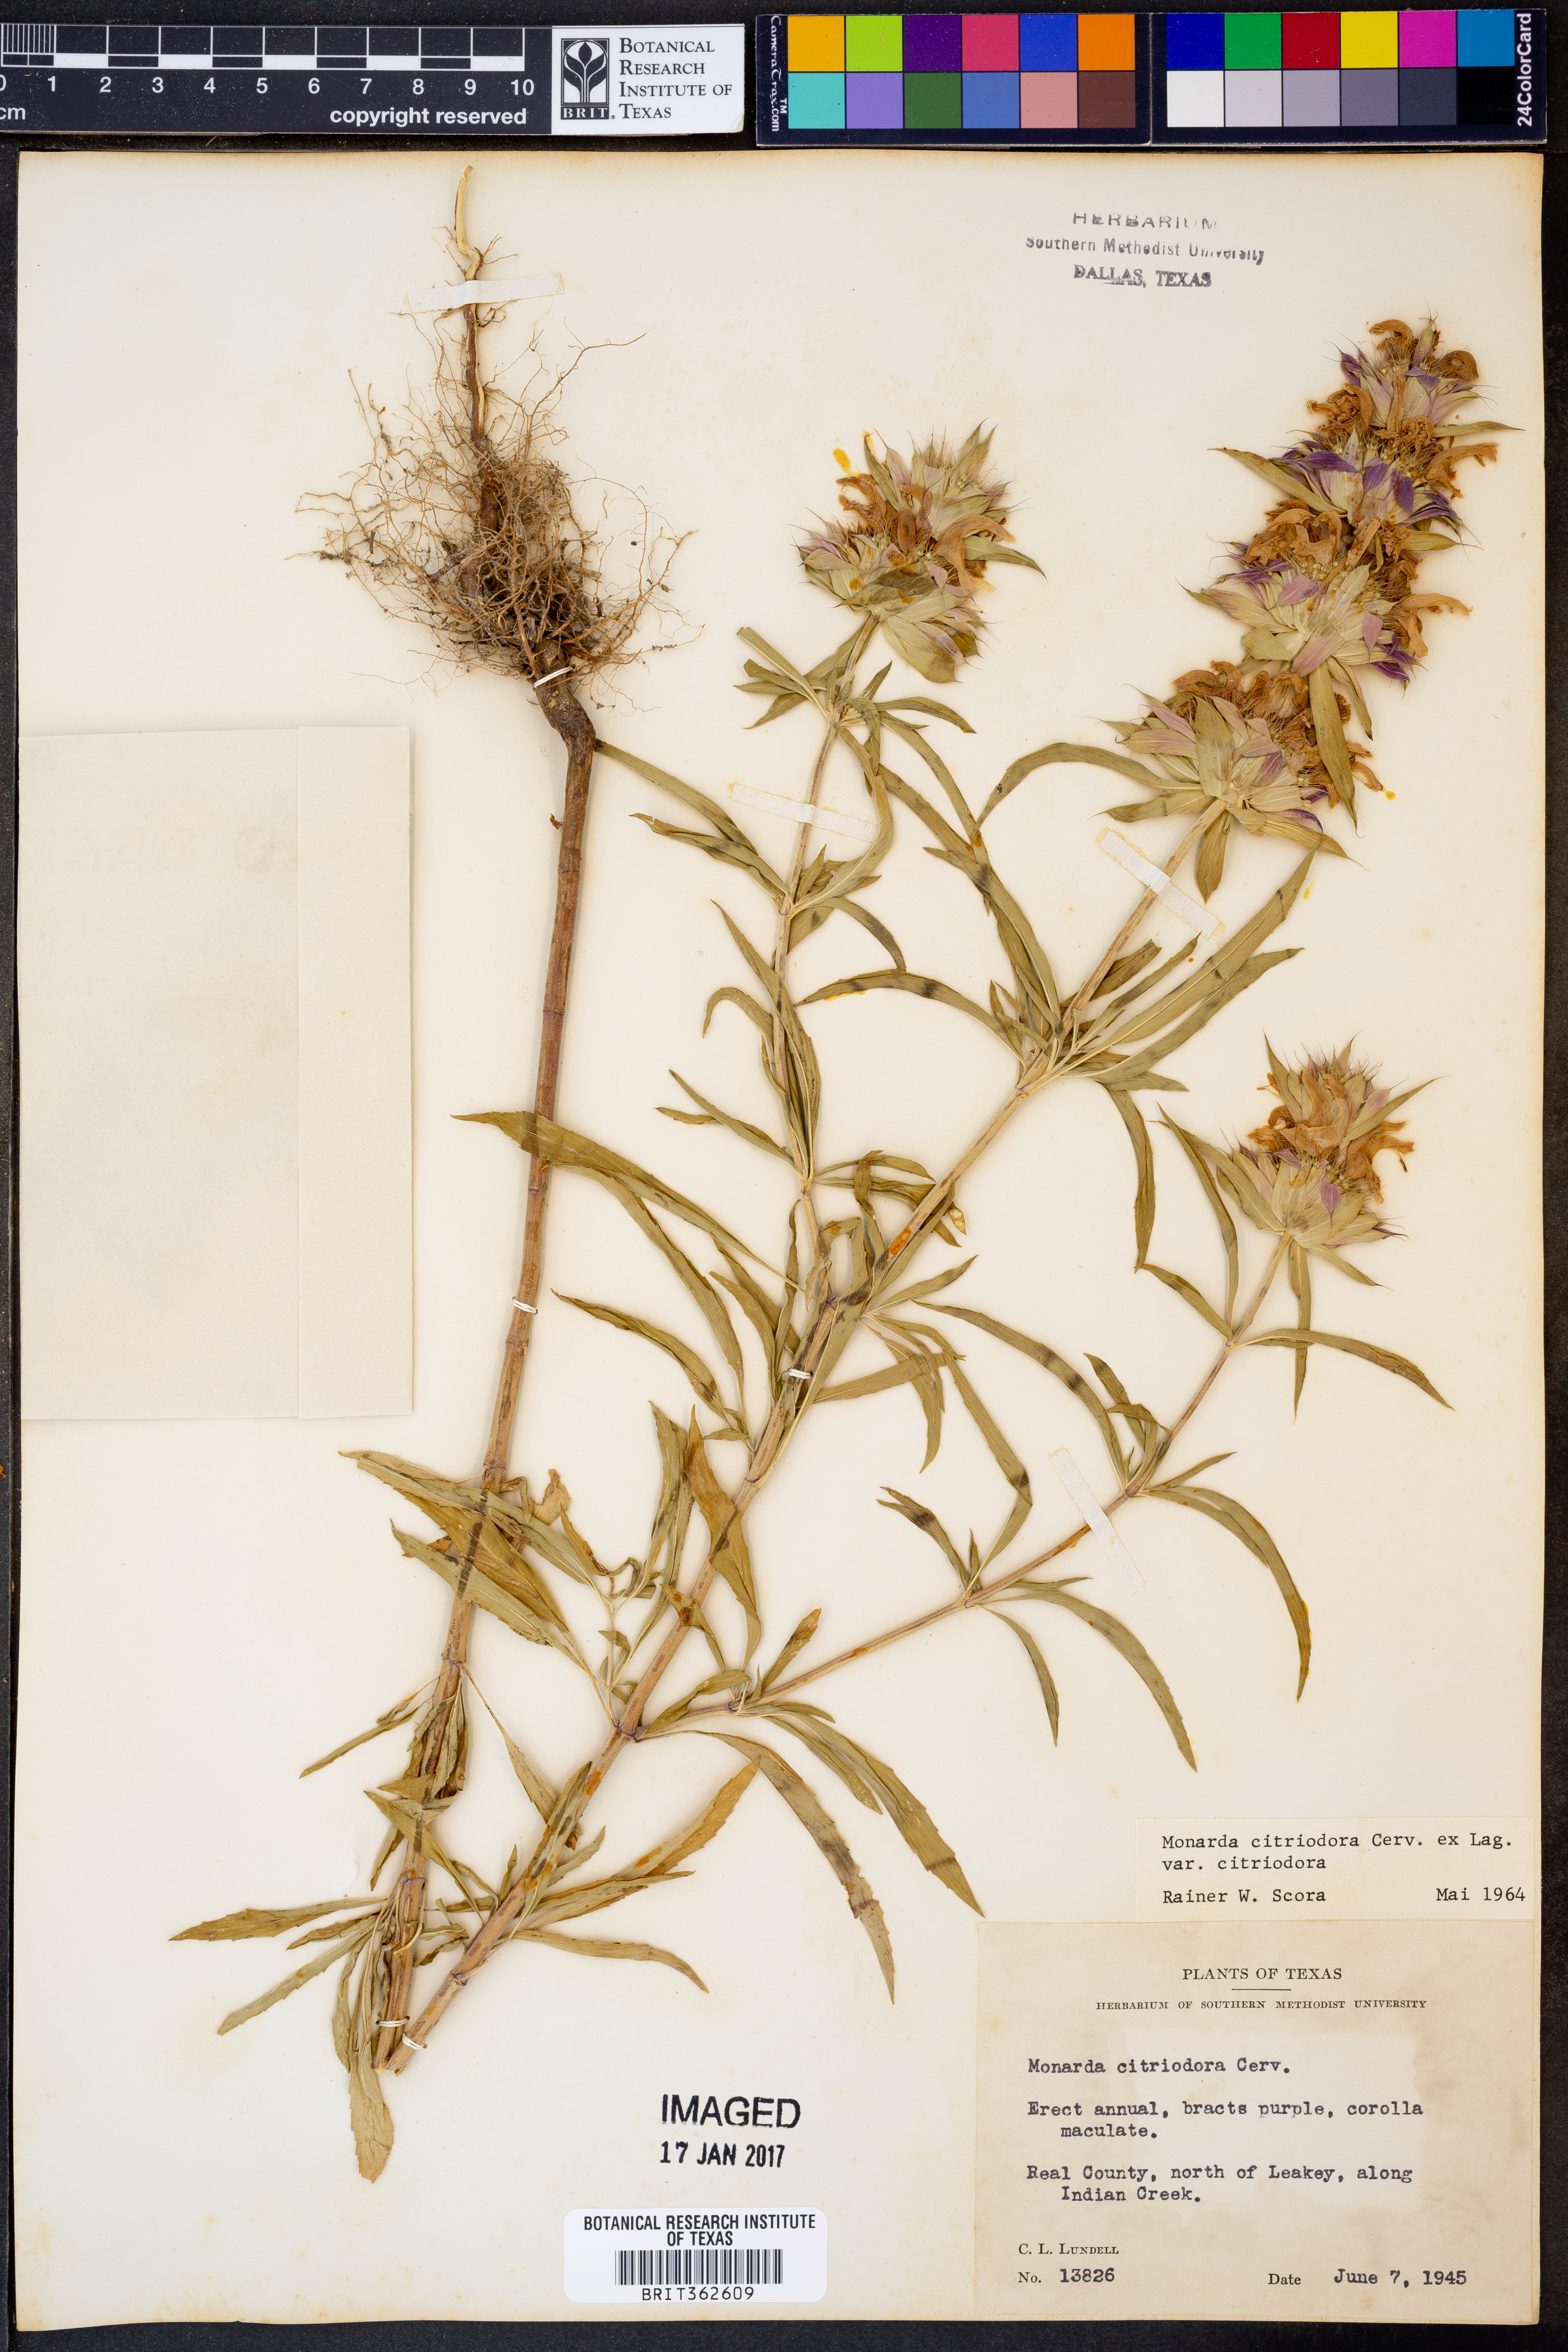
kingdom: Plantae
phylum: Tracheophyta
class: Magnoliopsida
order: Lamiales
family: Lamiaceae
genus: Monarda
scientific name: Monarda citriodora
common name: Lemon beebalm
